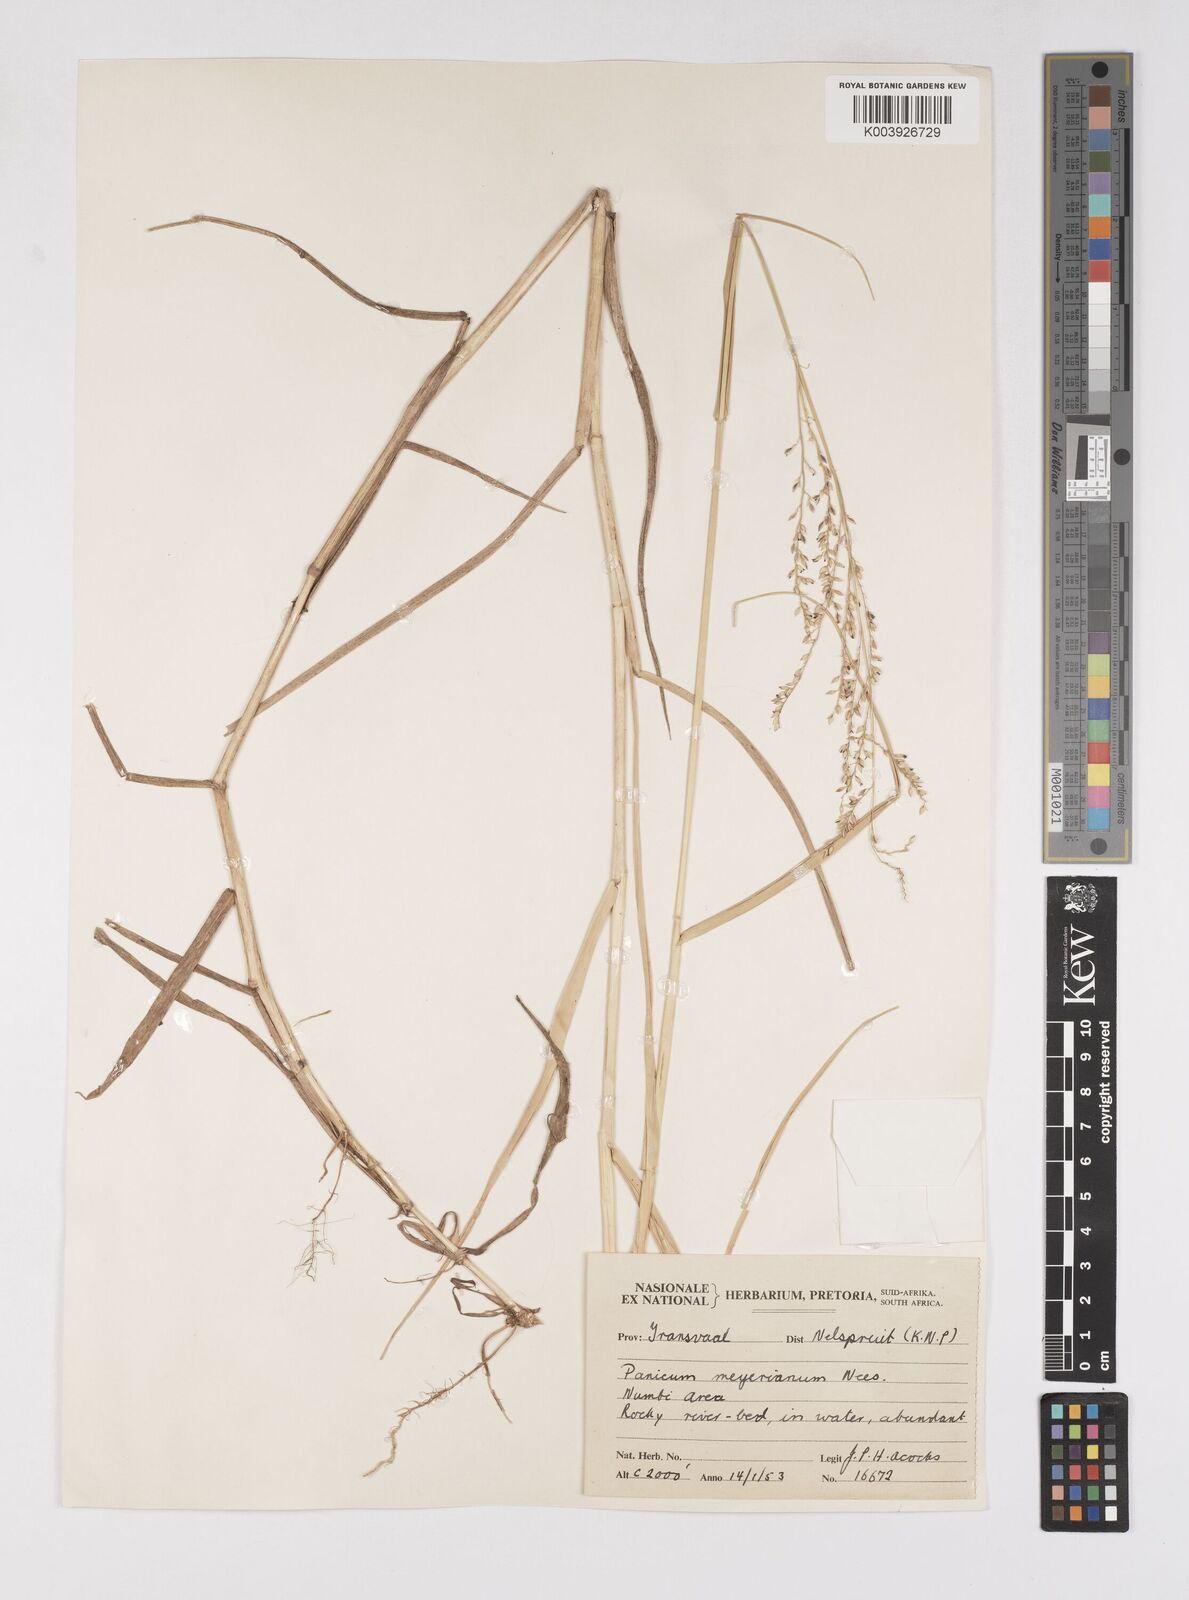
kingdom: Plantae
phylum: Tracheophyta
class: Liliopsida
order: Poales
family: Poaceae
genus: Eriochloa
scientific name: Eriochloa meyeriana
